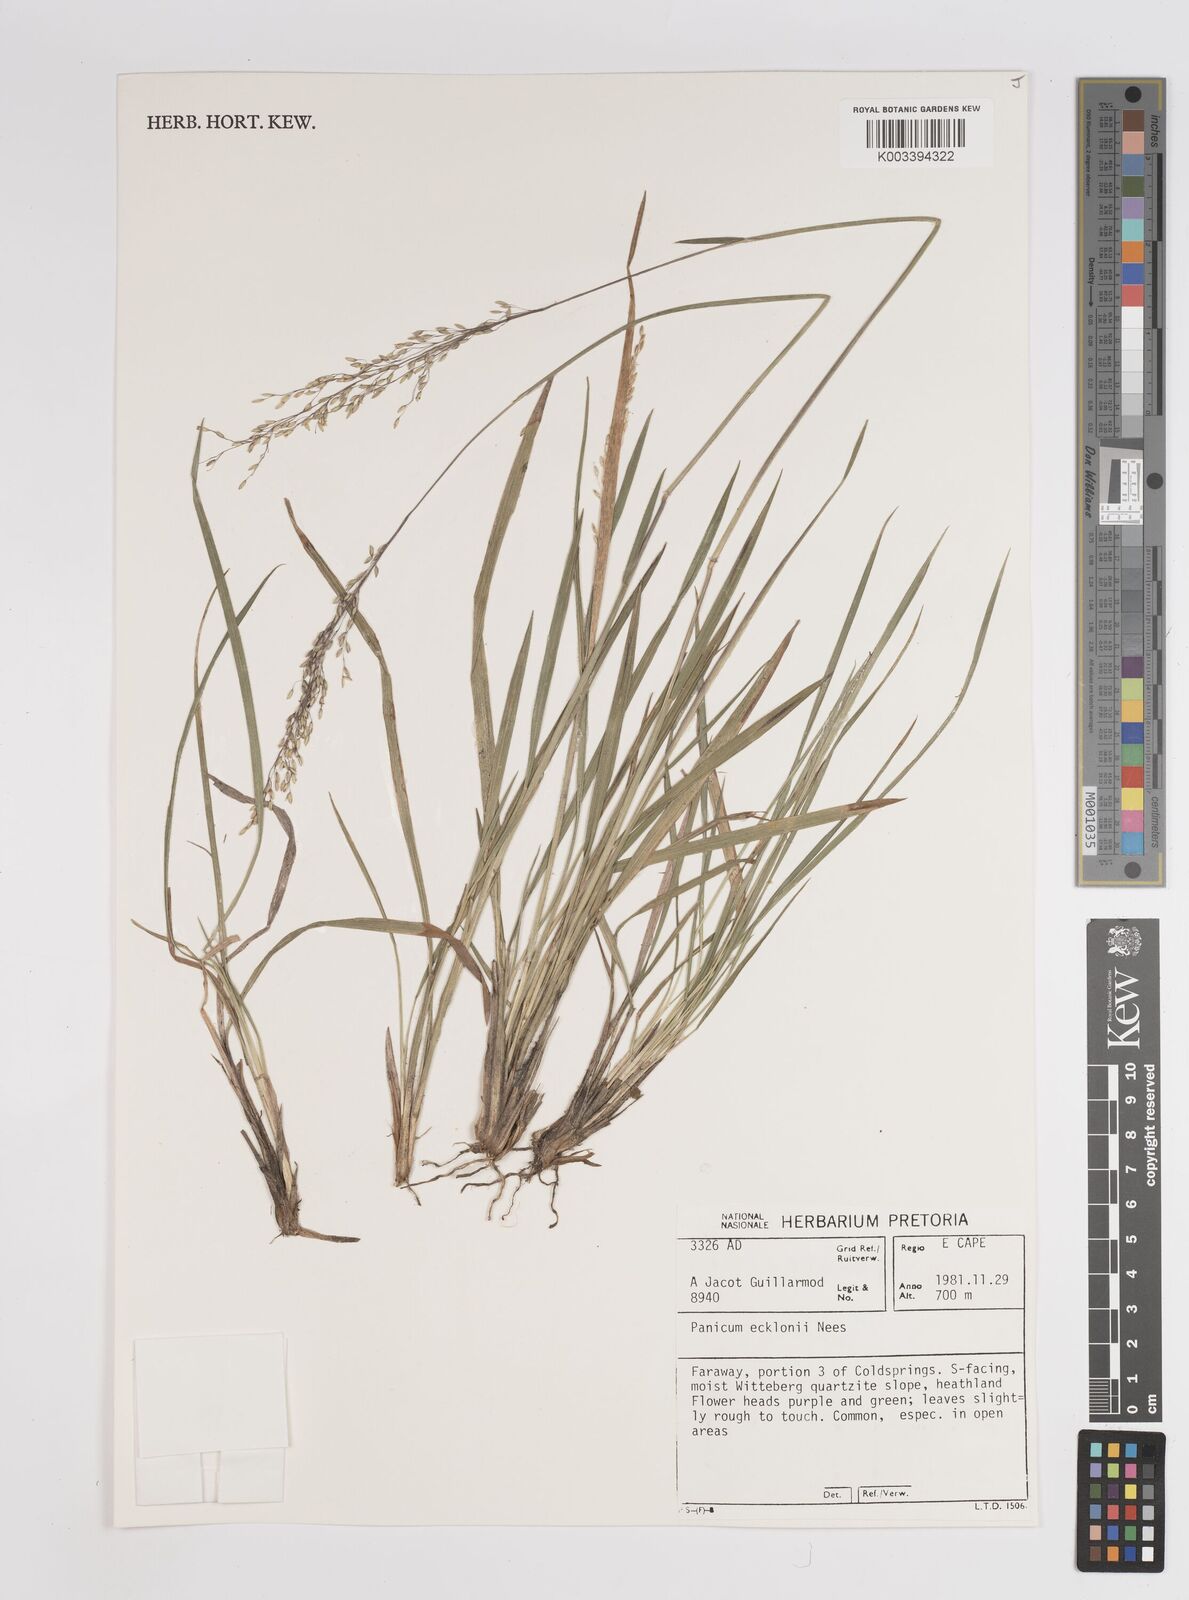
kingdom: Plantae
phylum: Tracheophyta
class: Liliopsida
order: Poales
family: Poaceae
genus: Adenochloa
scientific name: Adenochloa ecklonii
